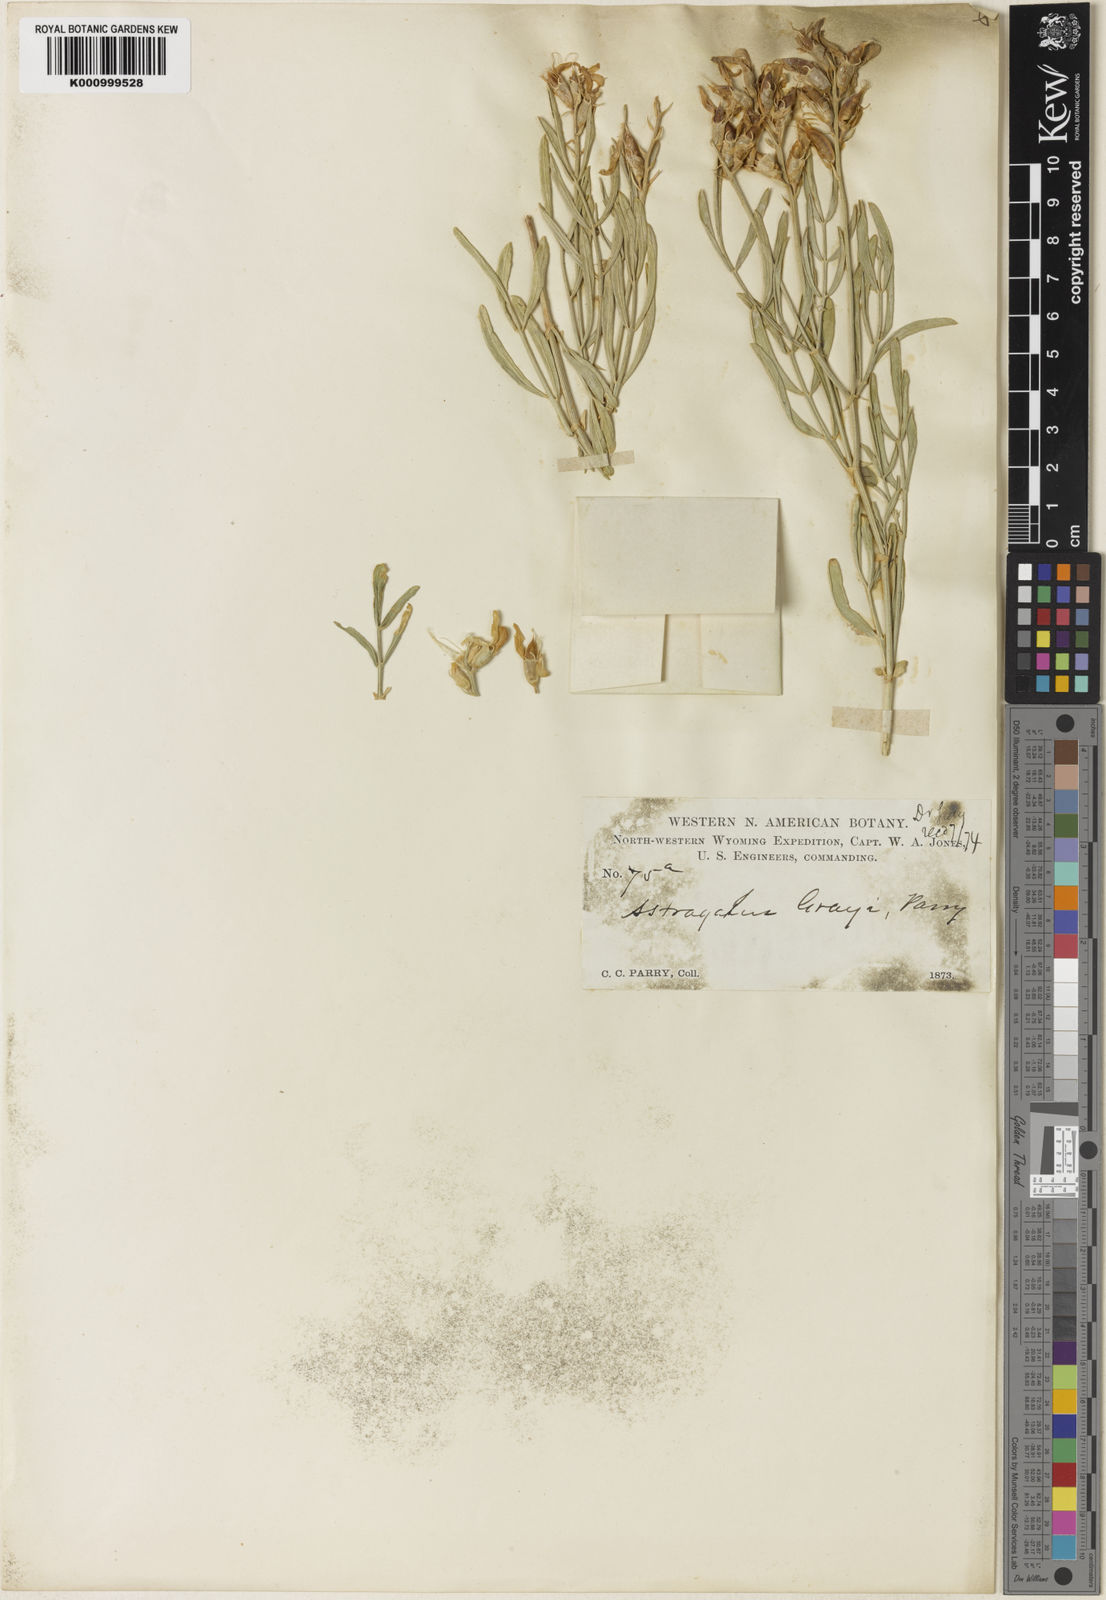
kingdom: Plantae
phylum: Tracheophyta
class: Magnoliopsida
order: Fabales
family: Fabaceae
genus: Astragalus
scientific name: Astragalus grayi
